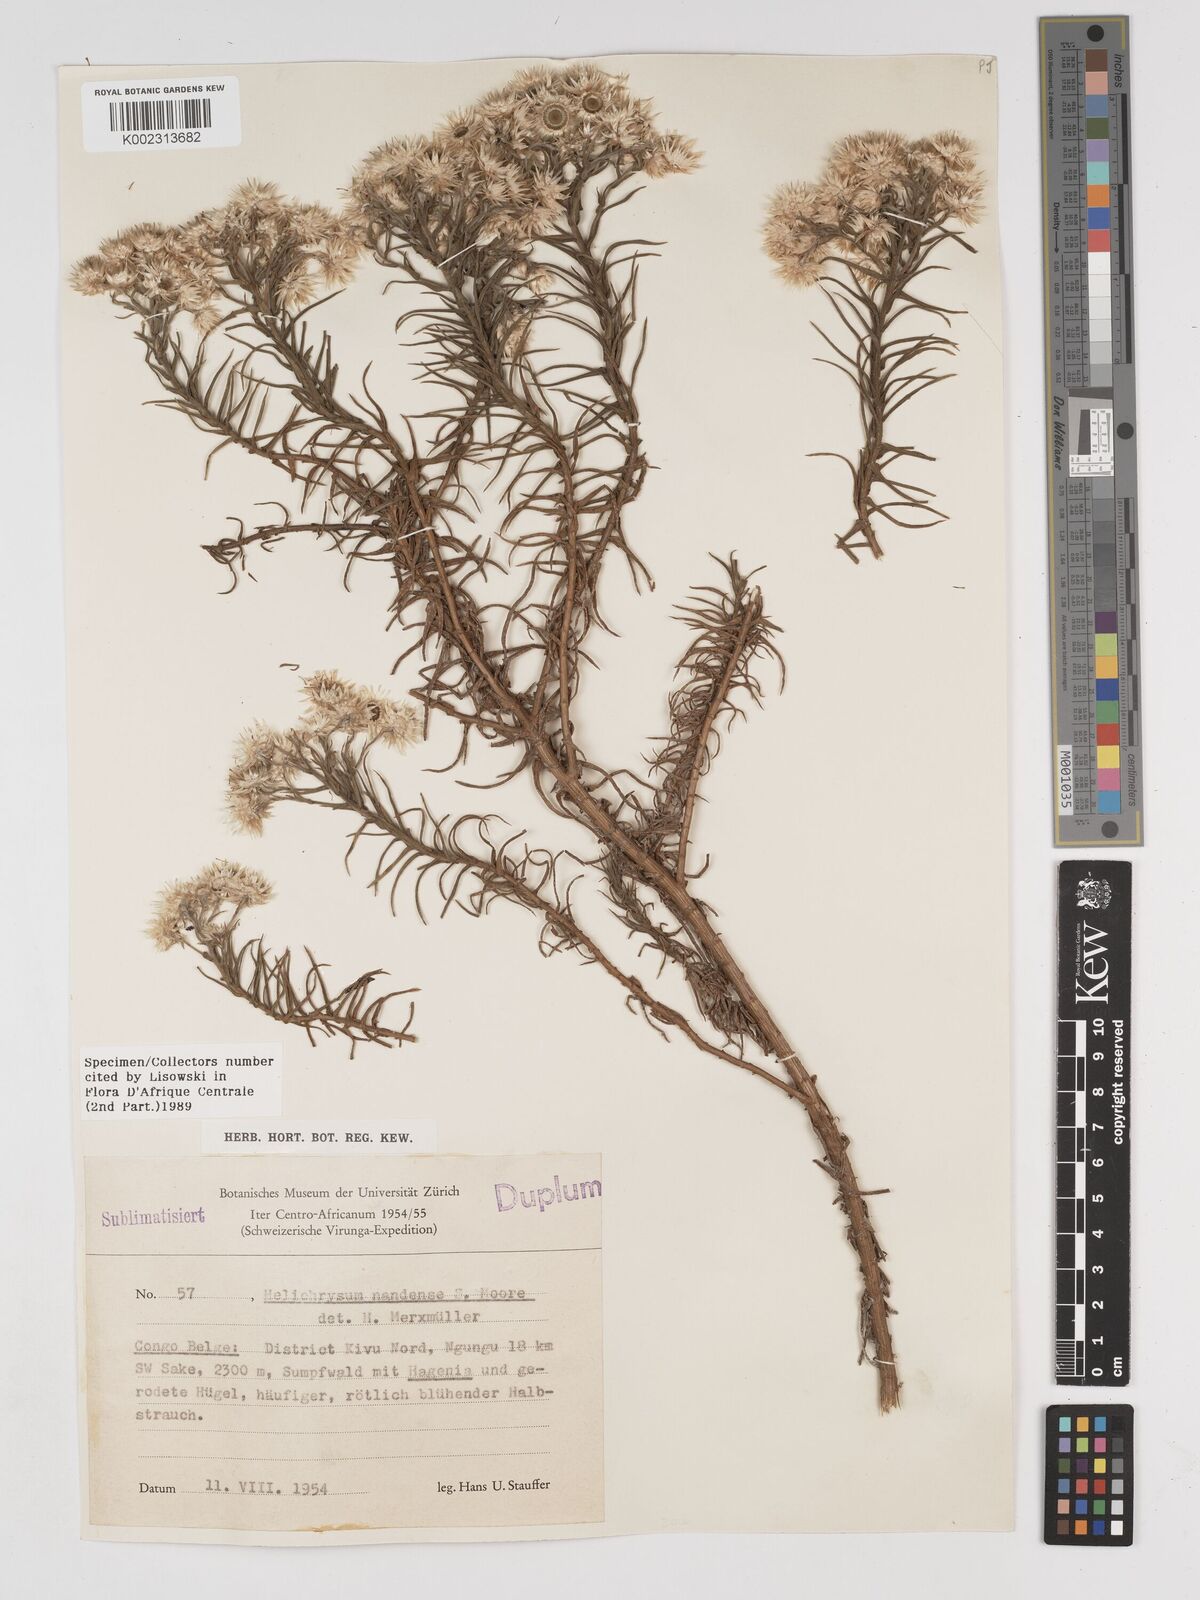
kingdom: Plantae
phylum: Tracheophyta
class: Magnoliopsida
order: Asterales
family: Asteraceae
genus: Helichrysum
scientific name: Helichrysum argyranthum
